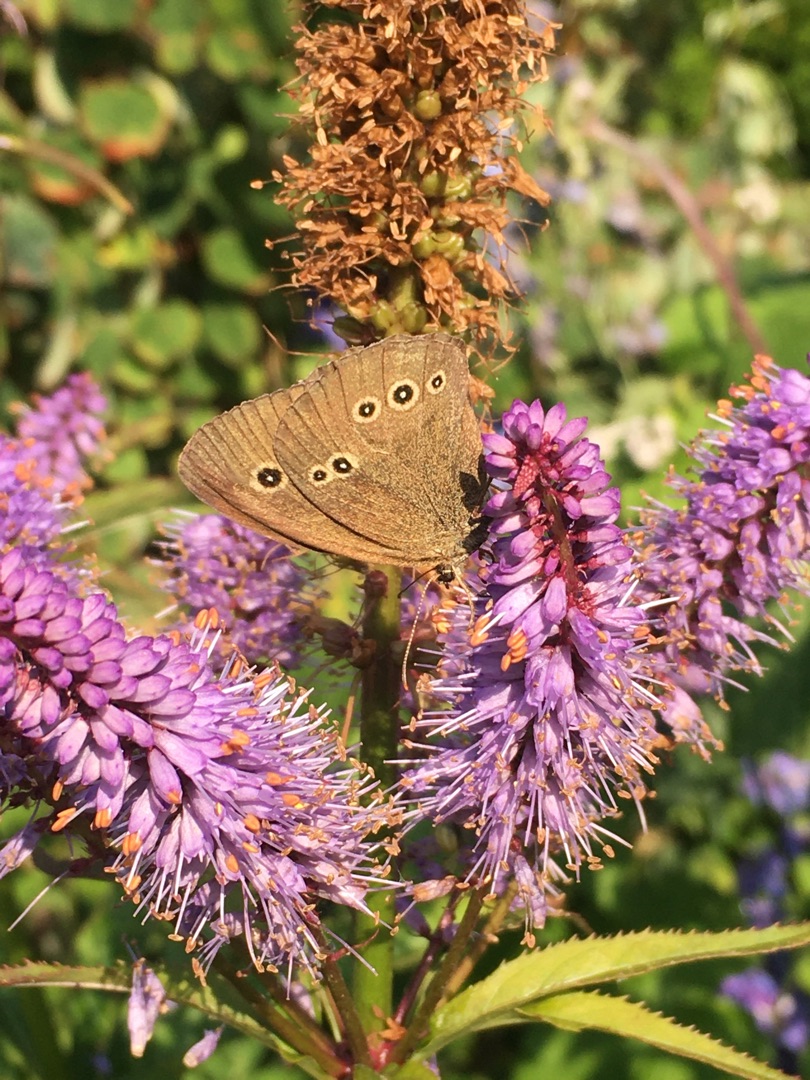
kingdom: Animalia
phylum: Arthropoda
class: Insecta
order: Lepidoptera
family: Nymphalidae
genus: Aphantopus
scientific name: Aphantopus hyperantus
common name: Engrandøje
